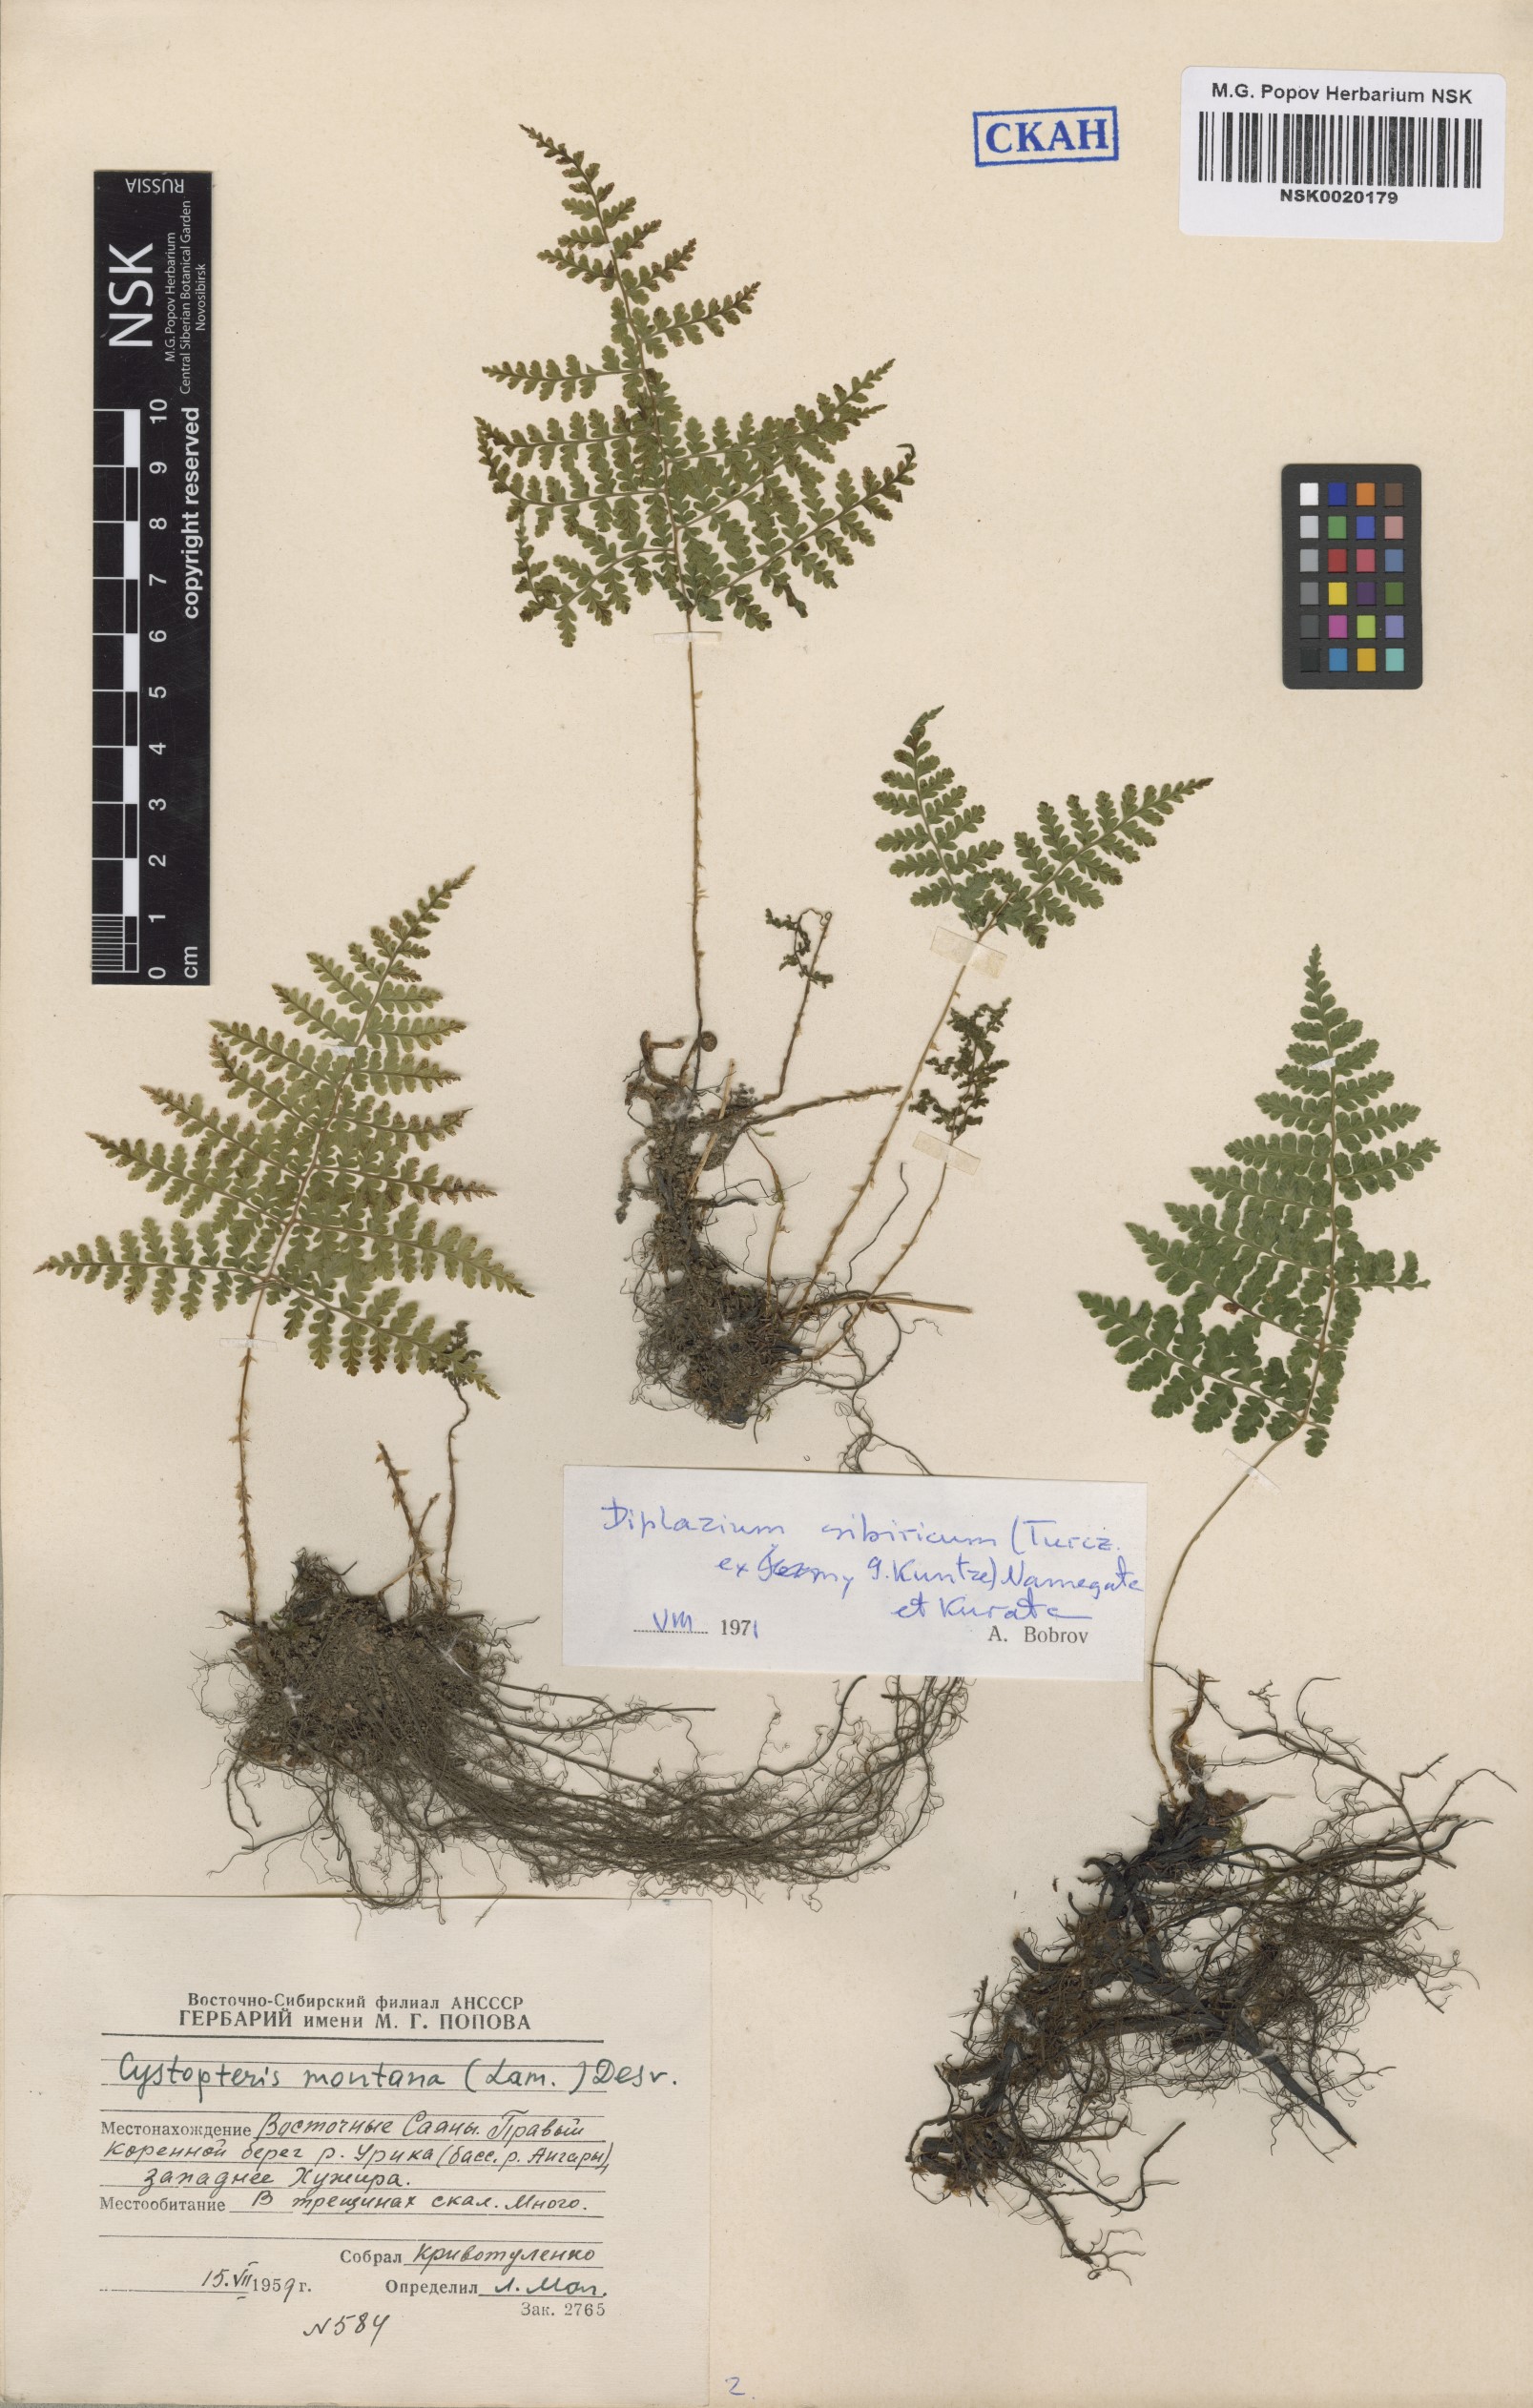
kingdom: Plantae
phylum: Tracheophyta
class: Polypodiopsida
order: Polypodiales
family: Athyriaceae
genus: Diplazium
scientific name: Diplazium sibiricum
